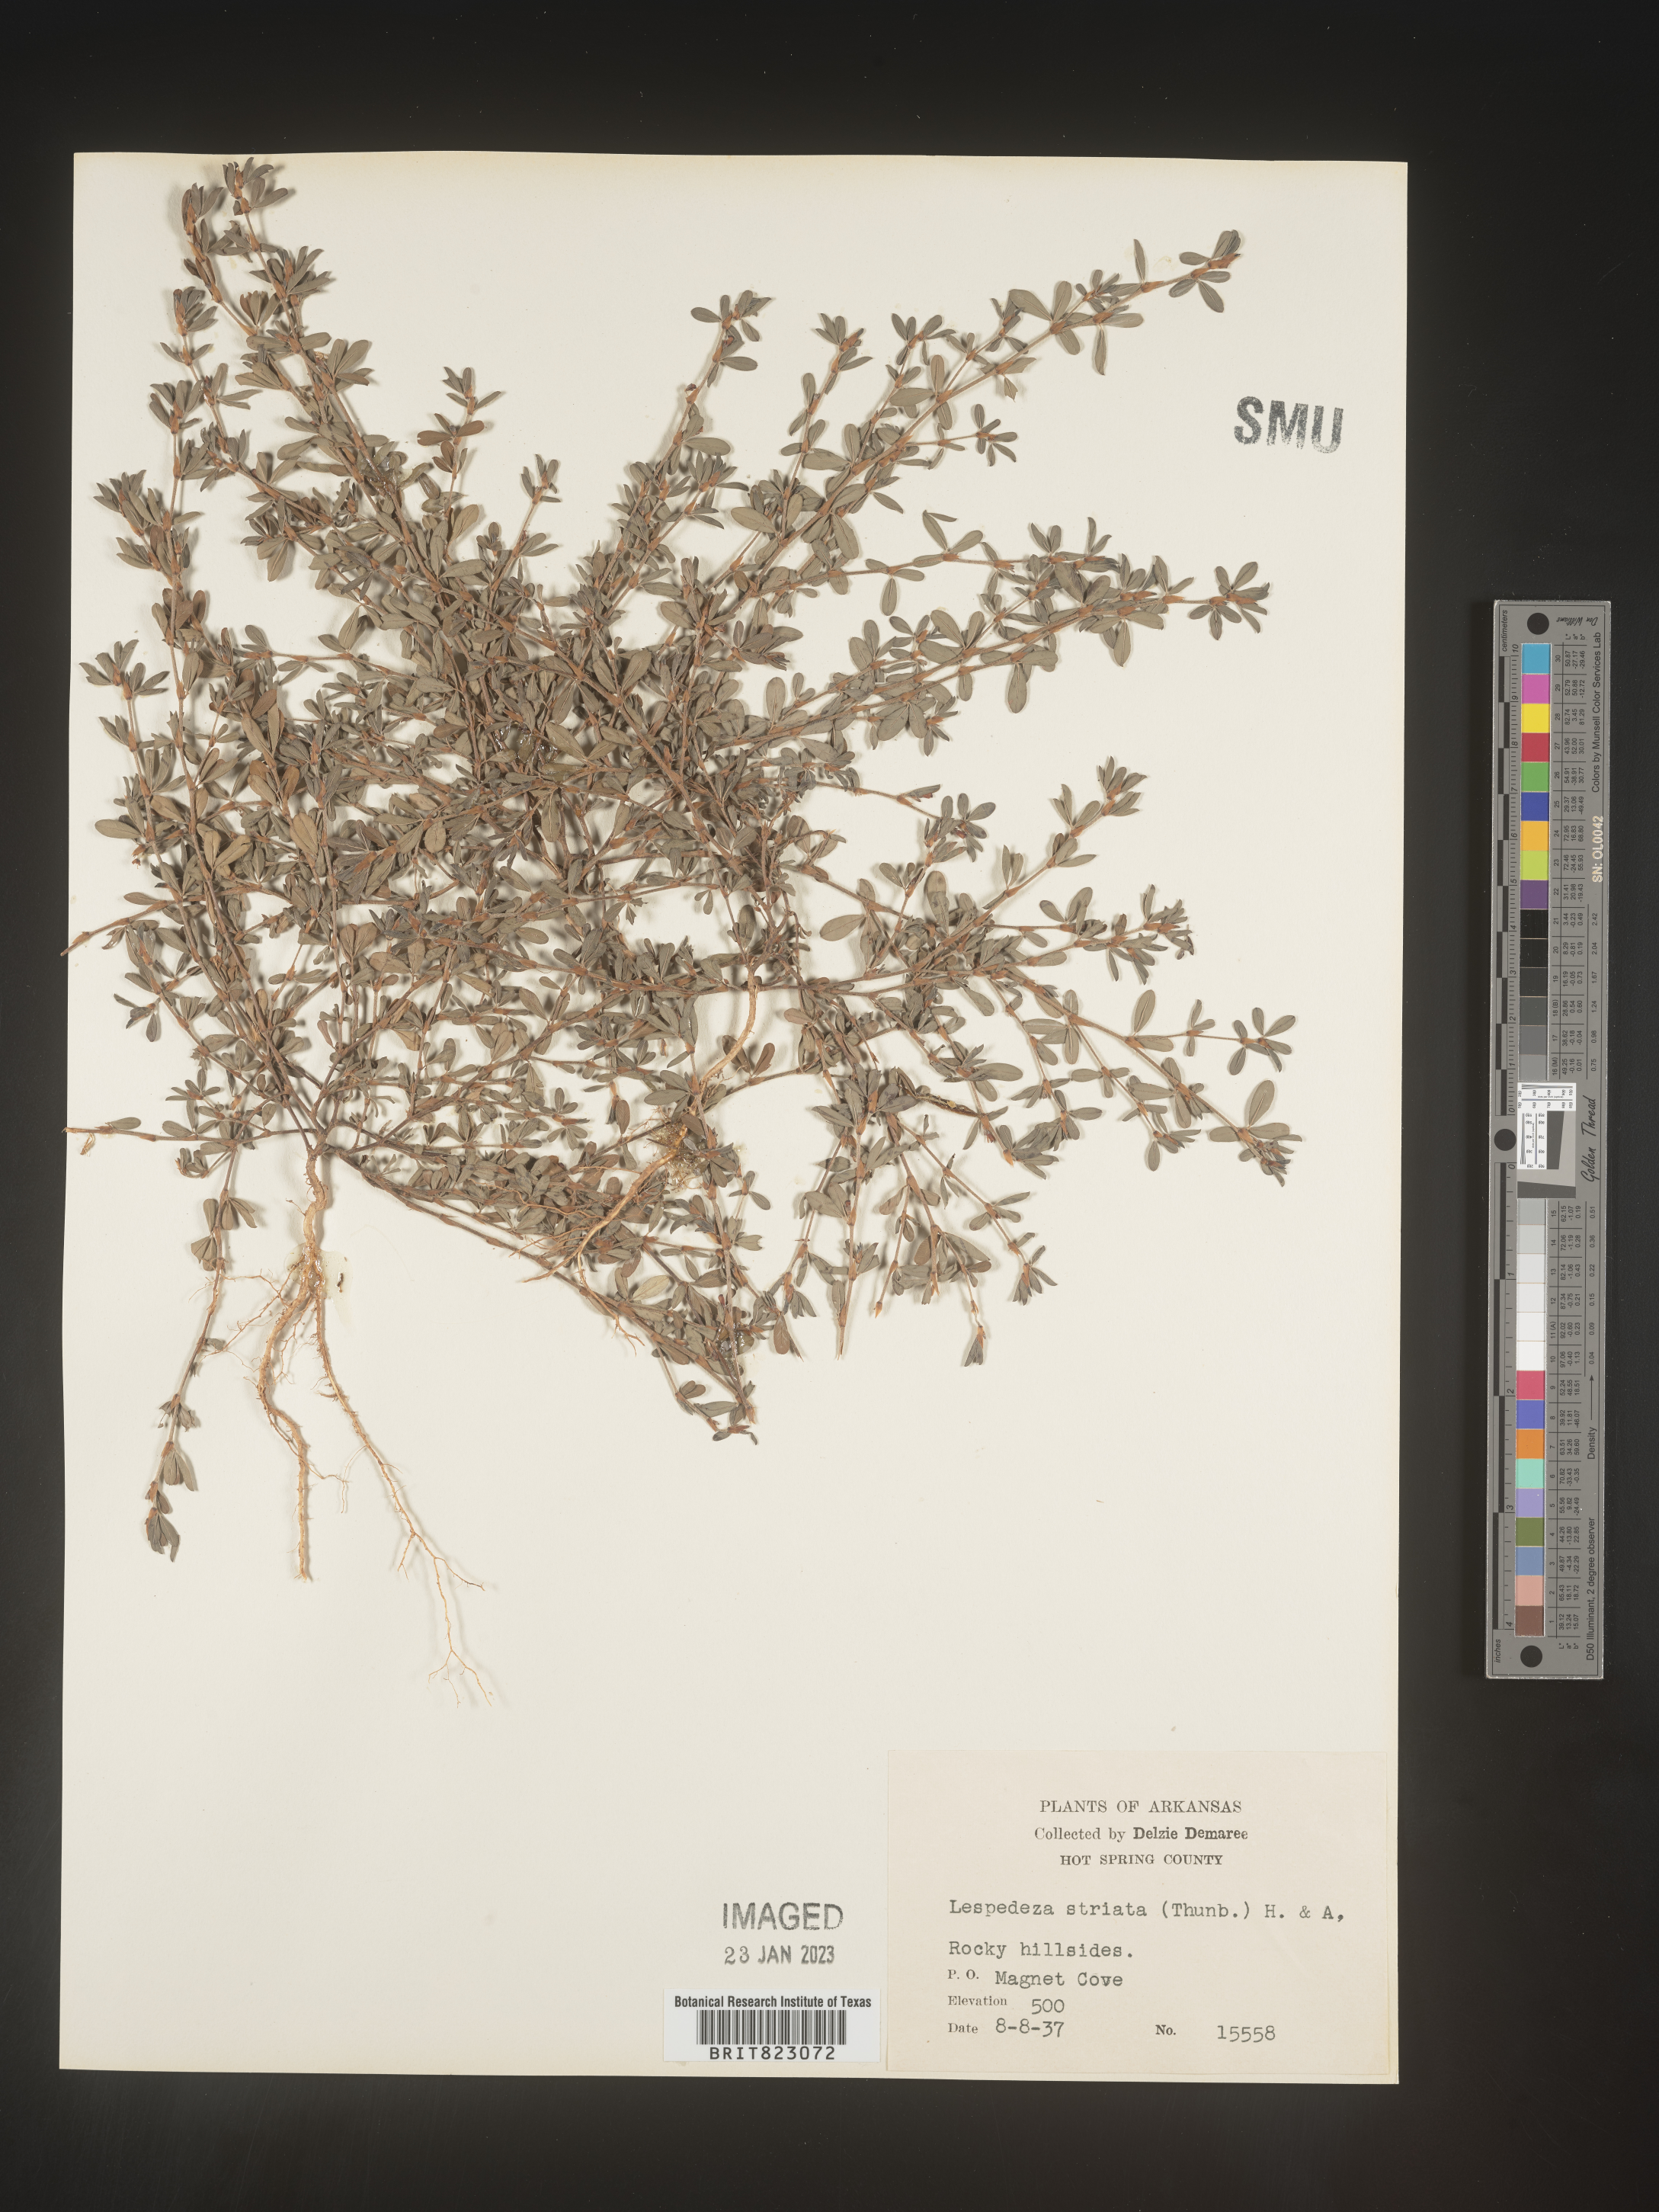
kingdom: Plantae
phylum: Tracheophyta
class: Magnoliopsida
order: Fabales
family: Fabaceae
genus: Kummerowia
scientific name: Kummerowia striata
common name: Japanese clover
